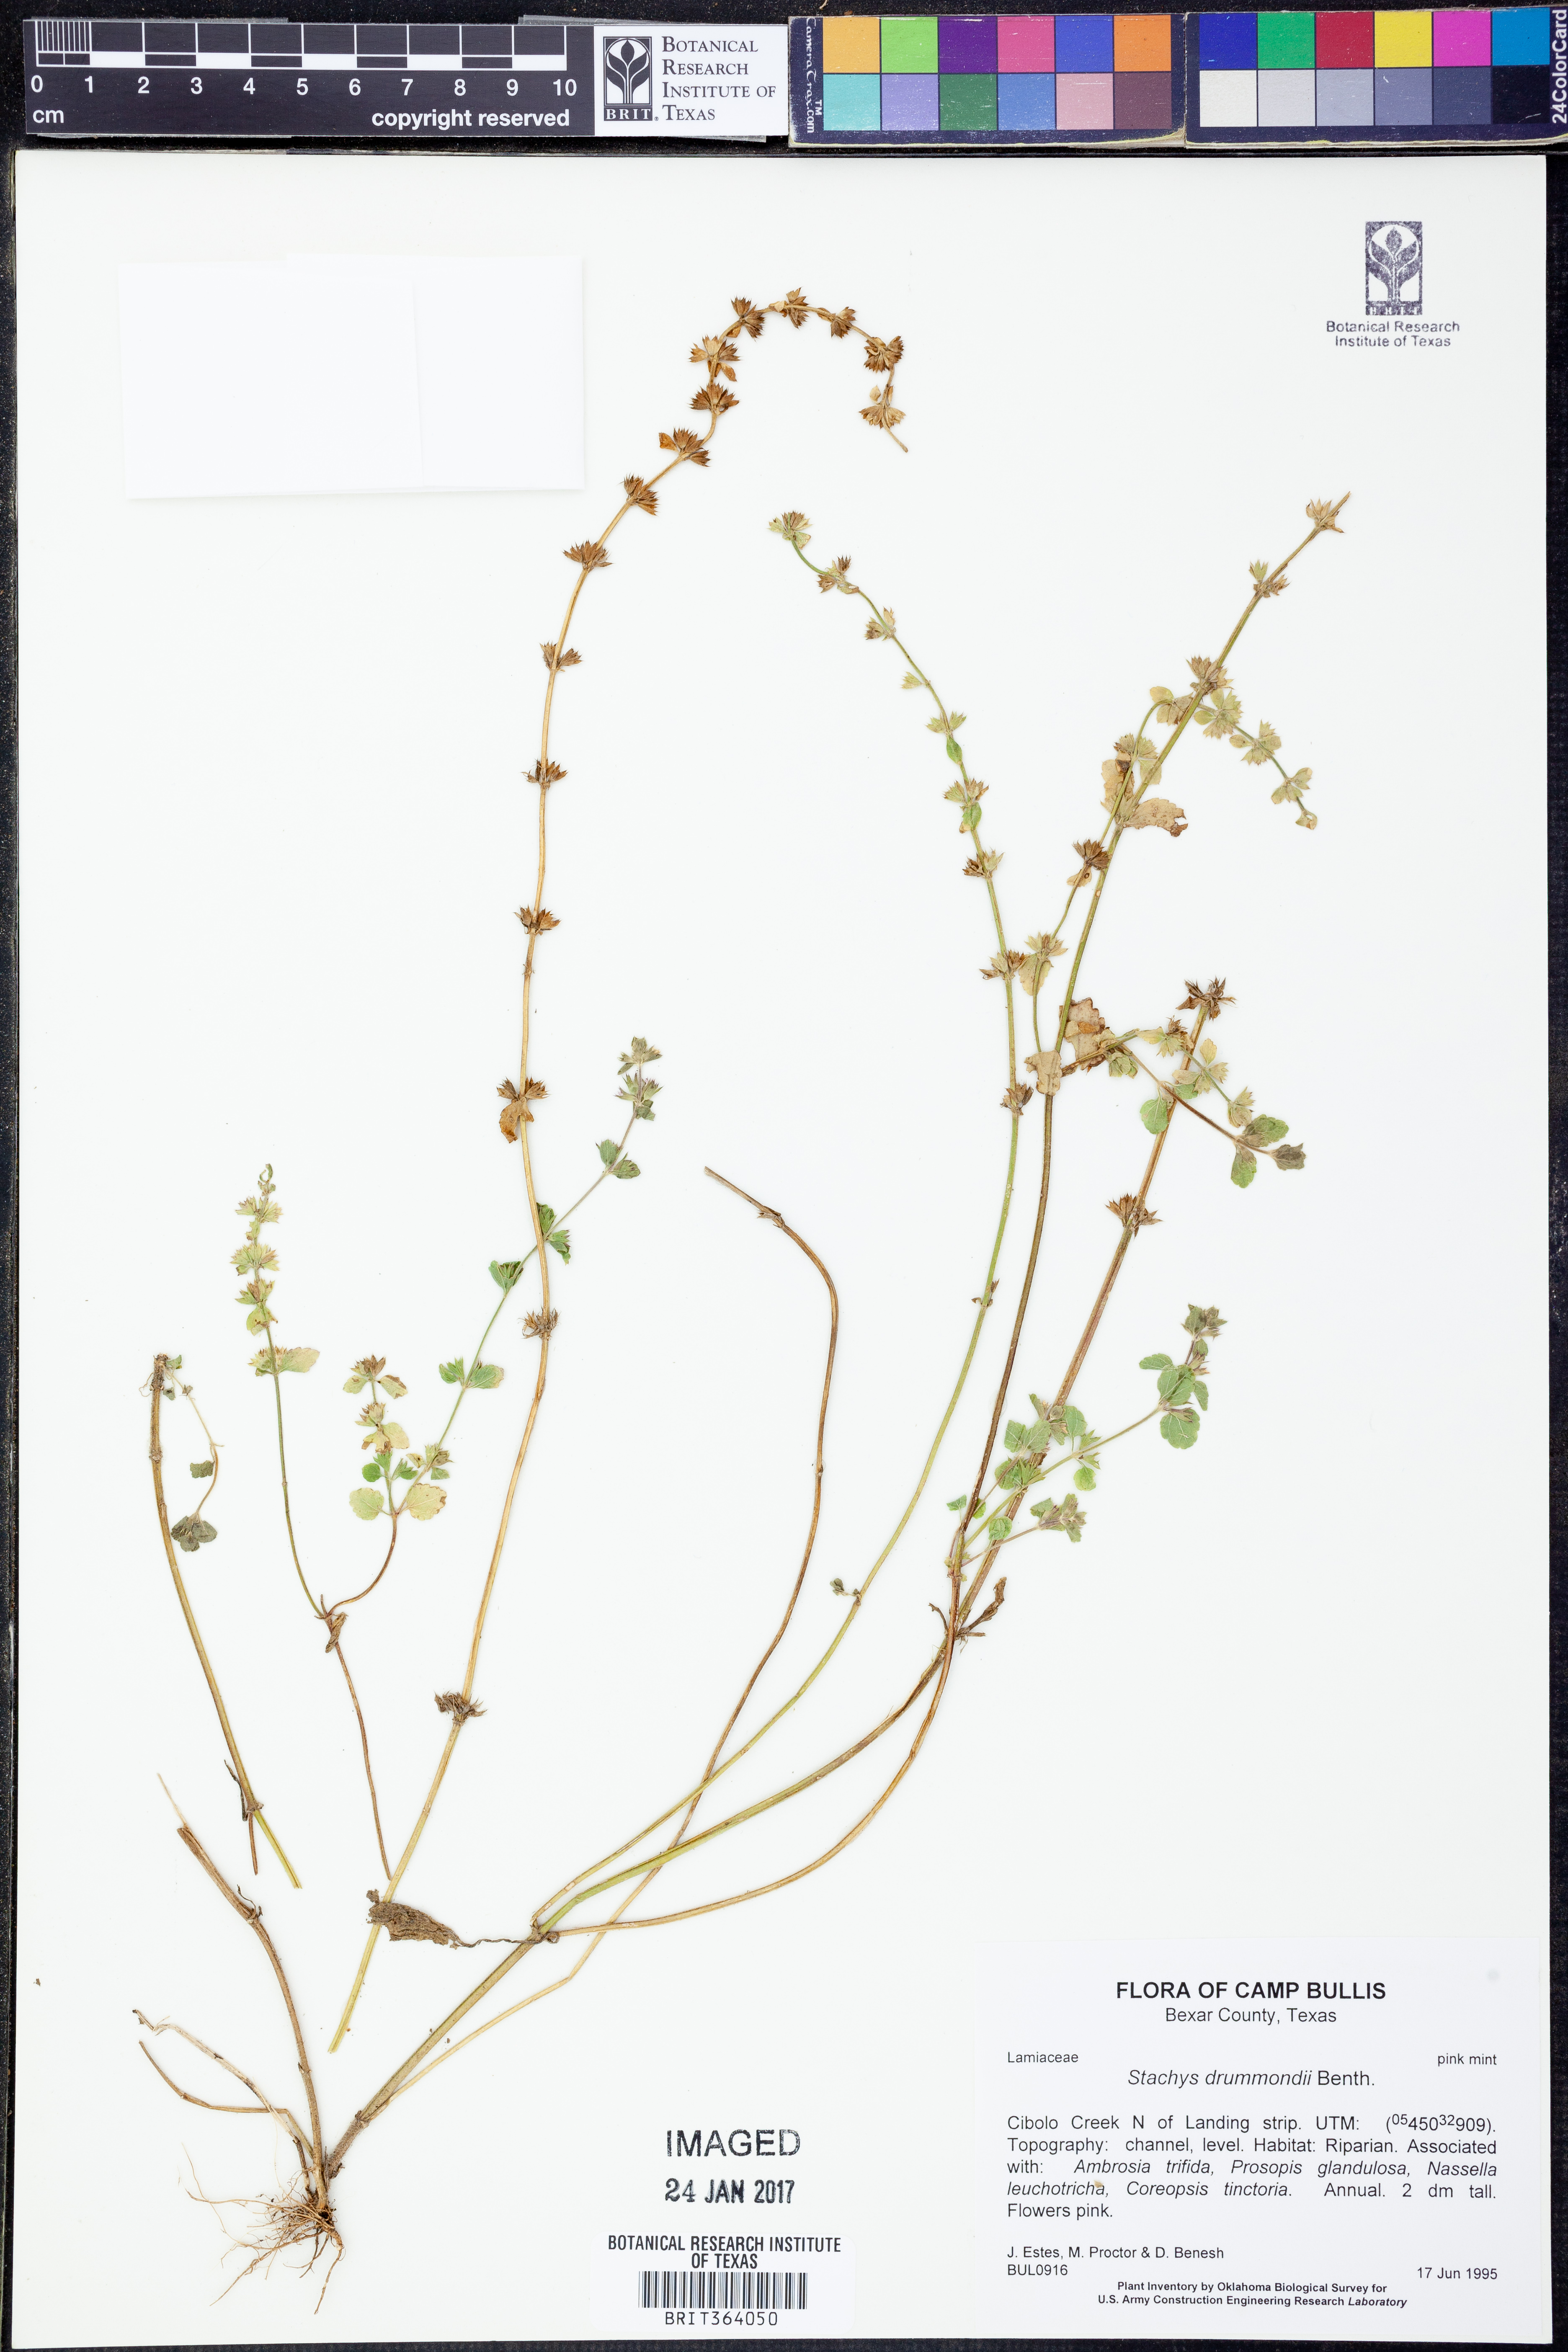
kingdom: Plantae
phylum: Tracheophyta
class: Magnoliopsida
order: Lamiales
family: Lamiaceae
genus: Stachys
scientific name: Stachys drummondii
